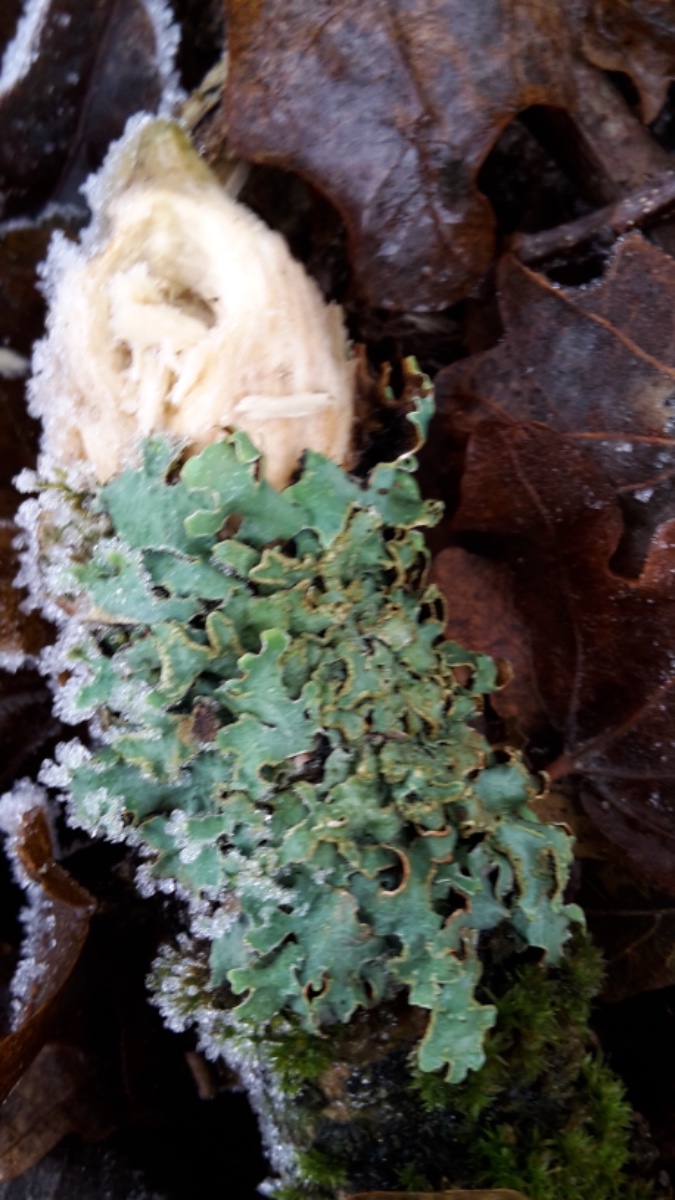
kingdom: Fungi
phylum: Ascomycota
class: Lecanoromycetes
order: Lecanorales
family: Parmeliaceae
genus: Parmelia
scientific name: Parmelia sulcata
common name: rynket skållav
